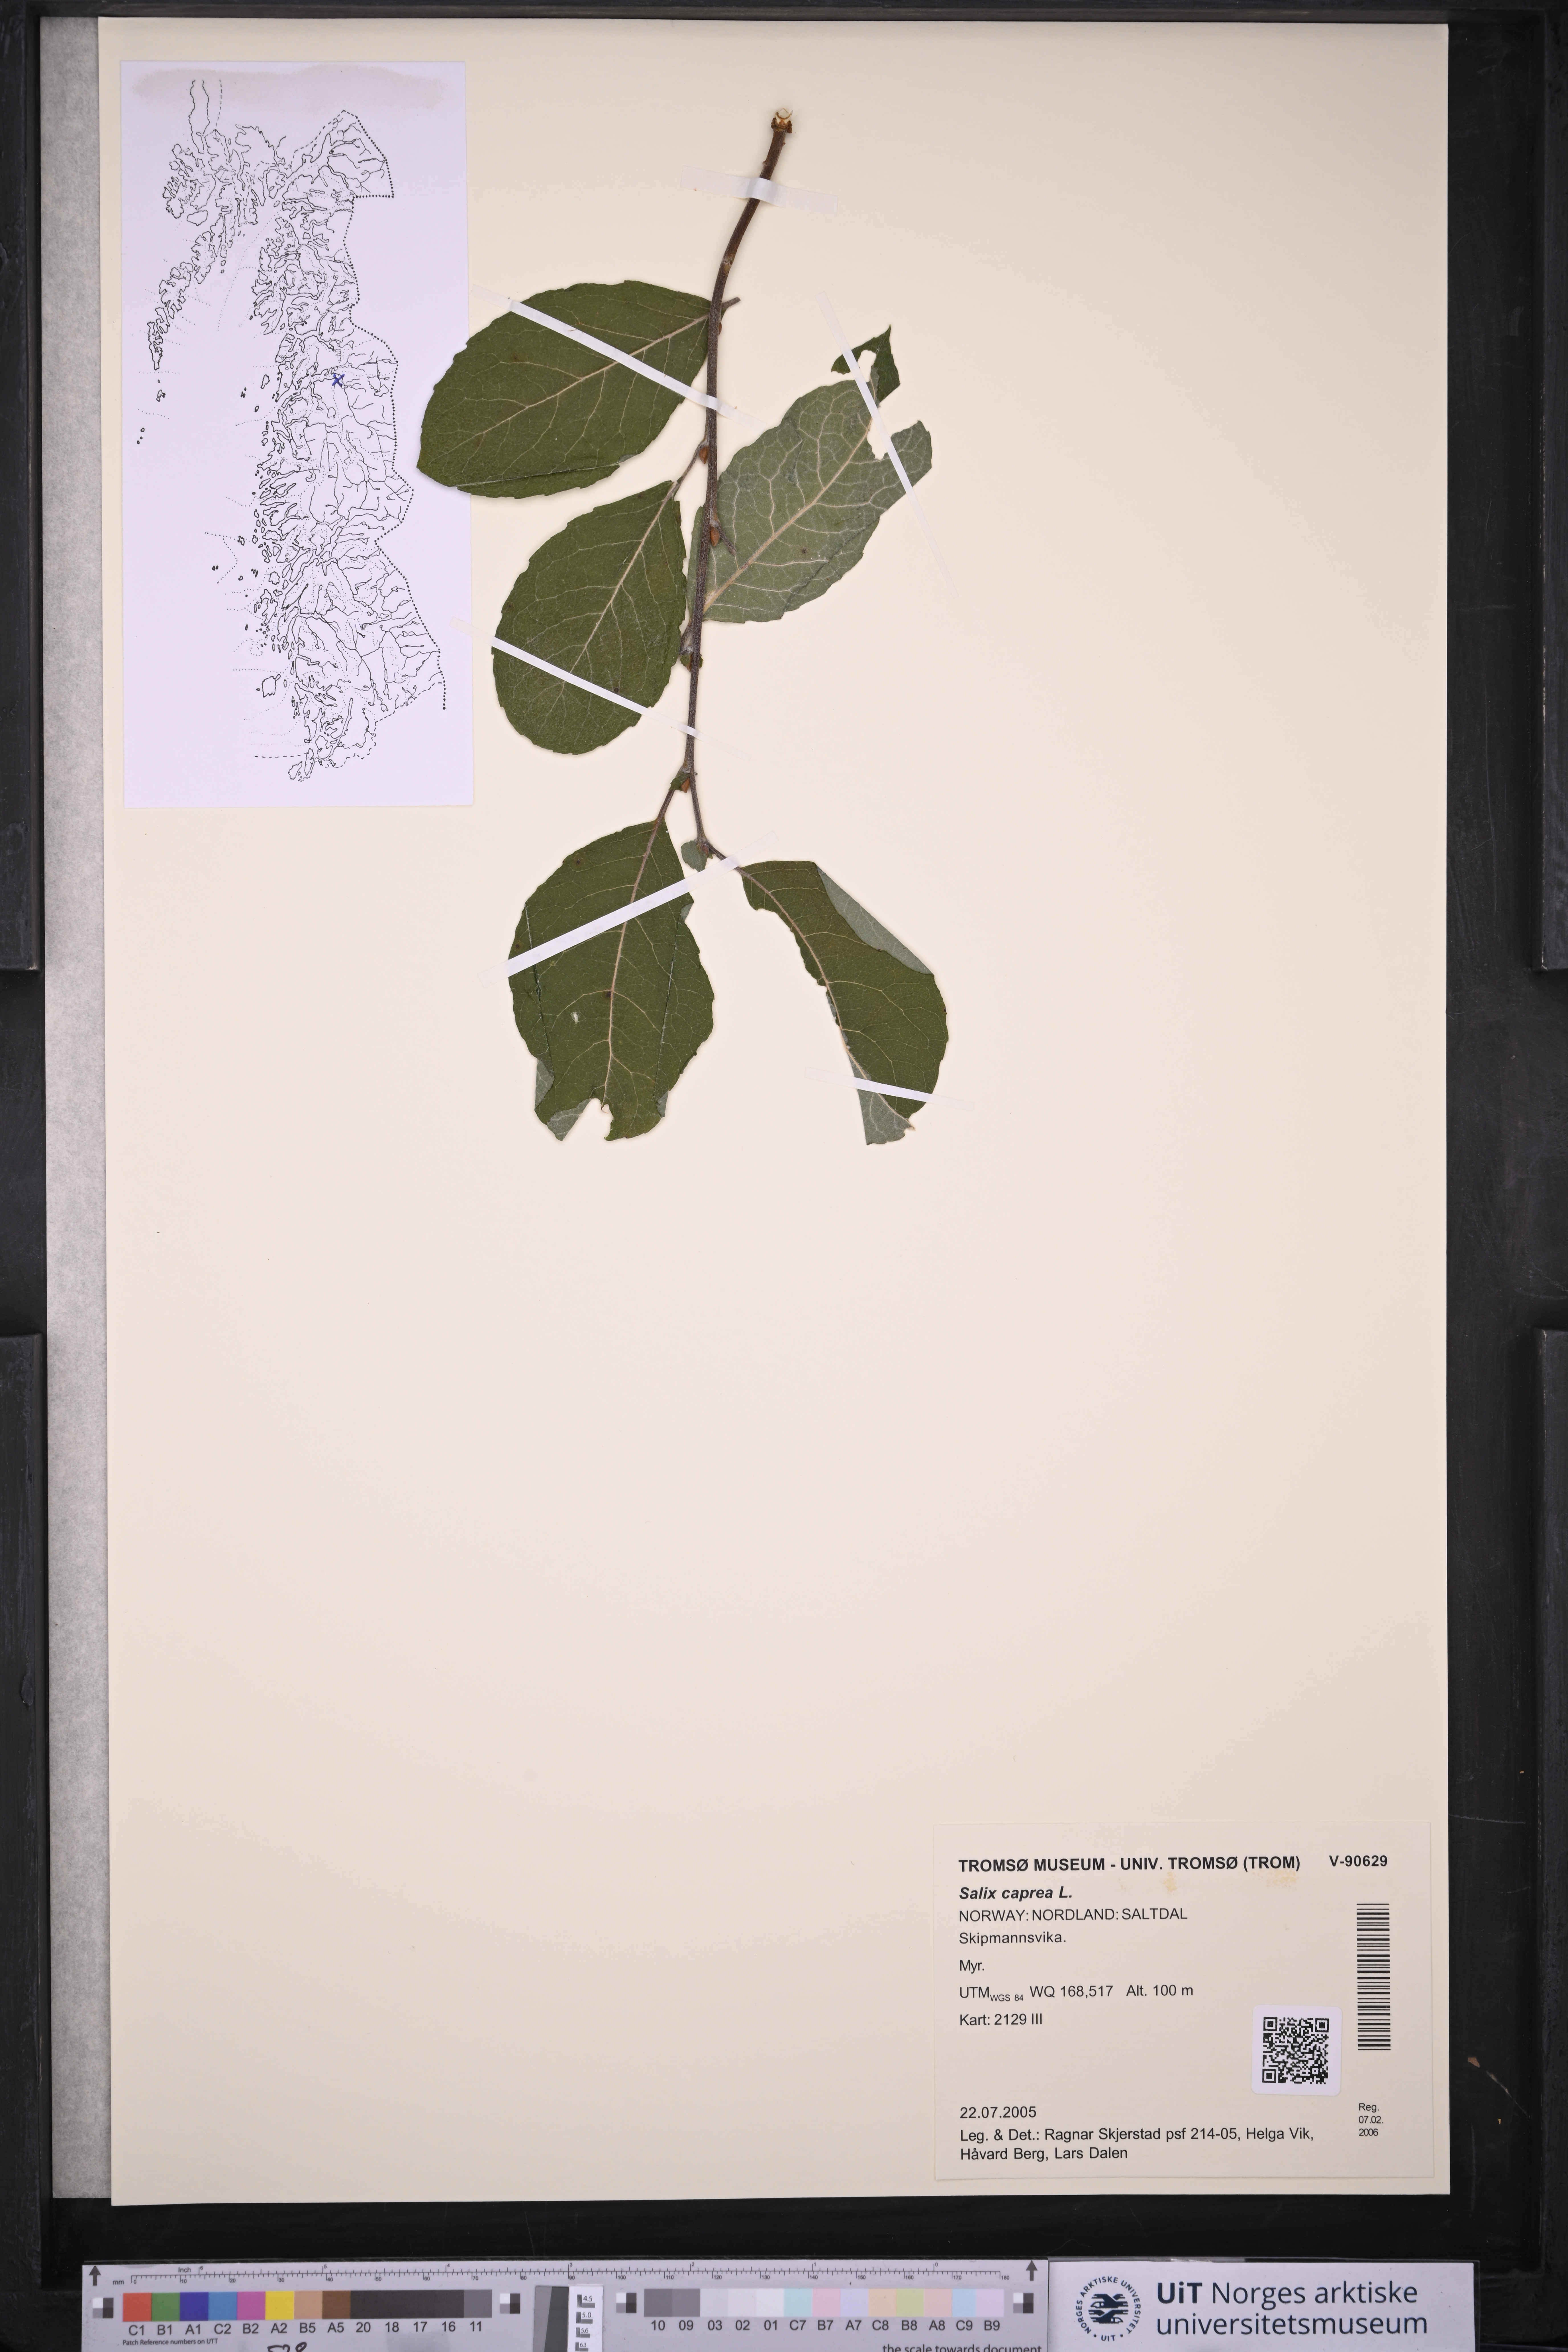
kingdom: Plantae
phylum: Tracheophyta
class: Magnoliopsida
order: Malpighiales
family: Salicaceae
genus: Salix
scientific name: Salix caprea
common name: Goat willow
